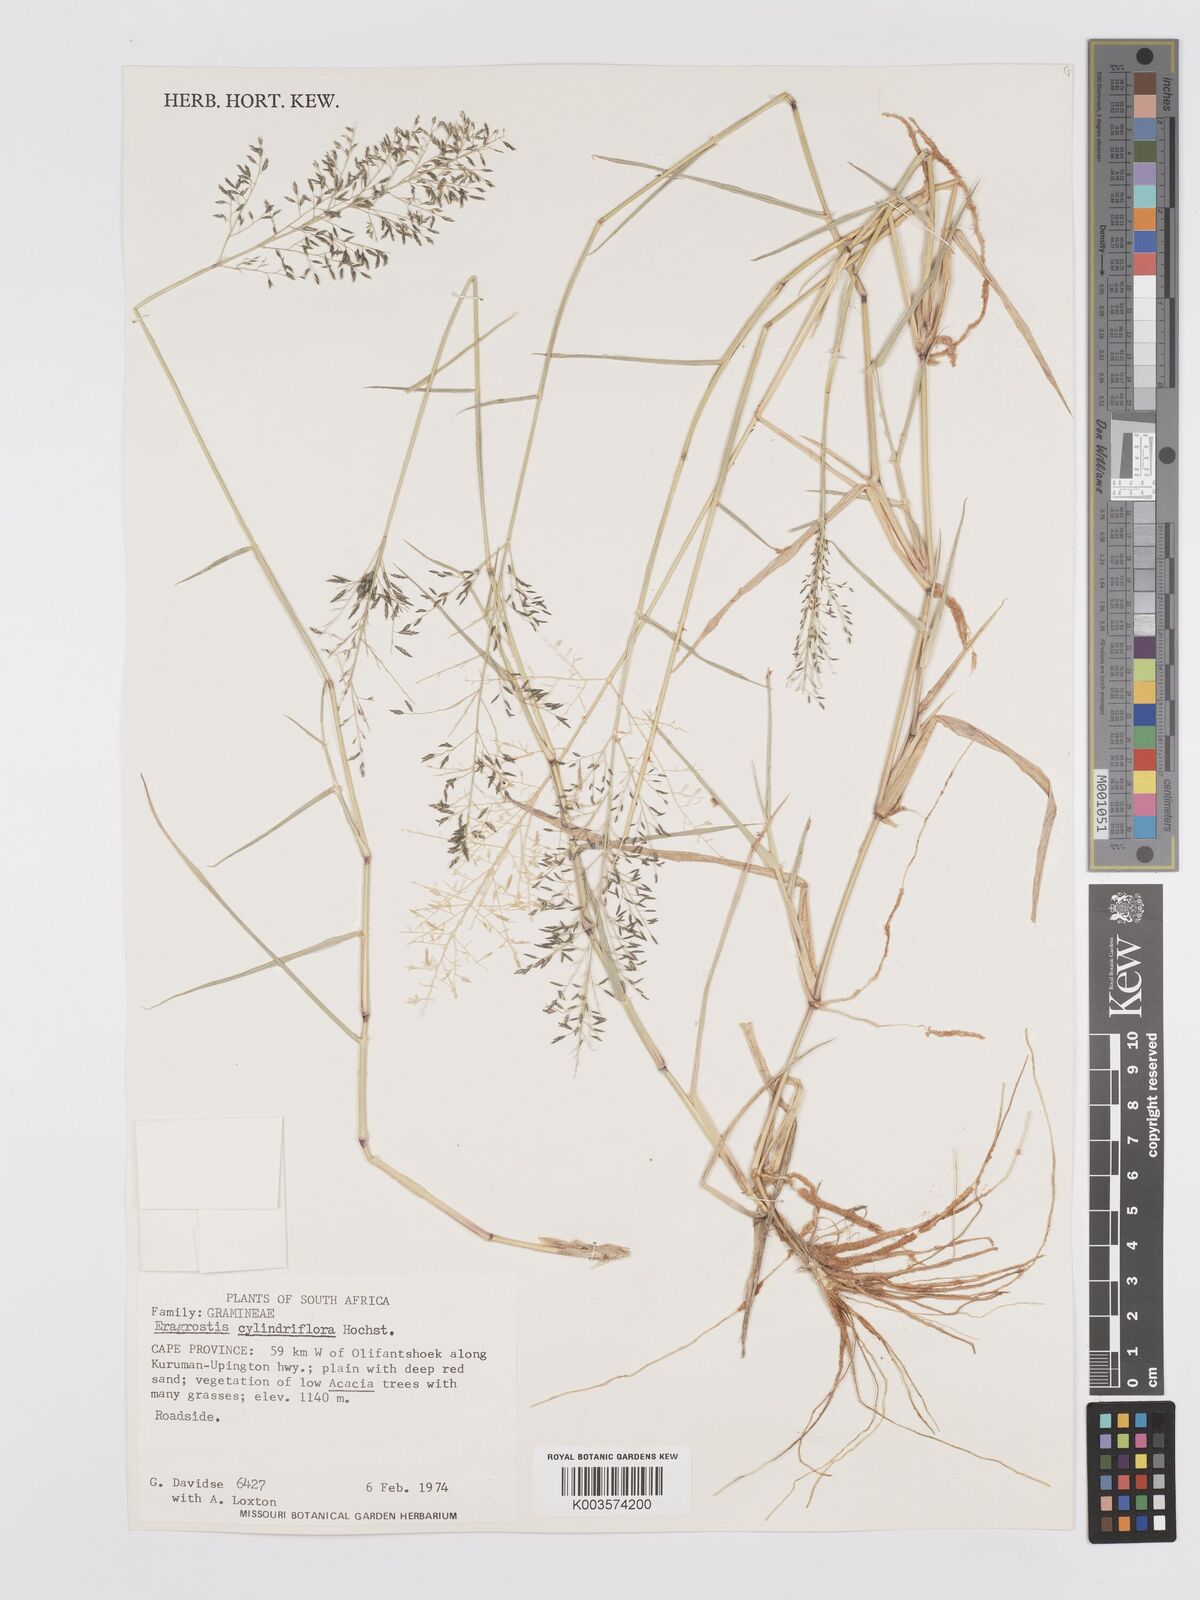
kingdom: Plantae
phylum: Tracheophyta
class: Liliopsida
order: Poales
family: Poaceae
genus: Eragrostis
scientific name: Eragrostis cylindriflora
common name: Cylinderflower lovegrass
